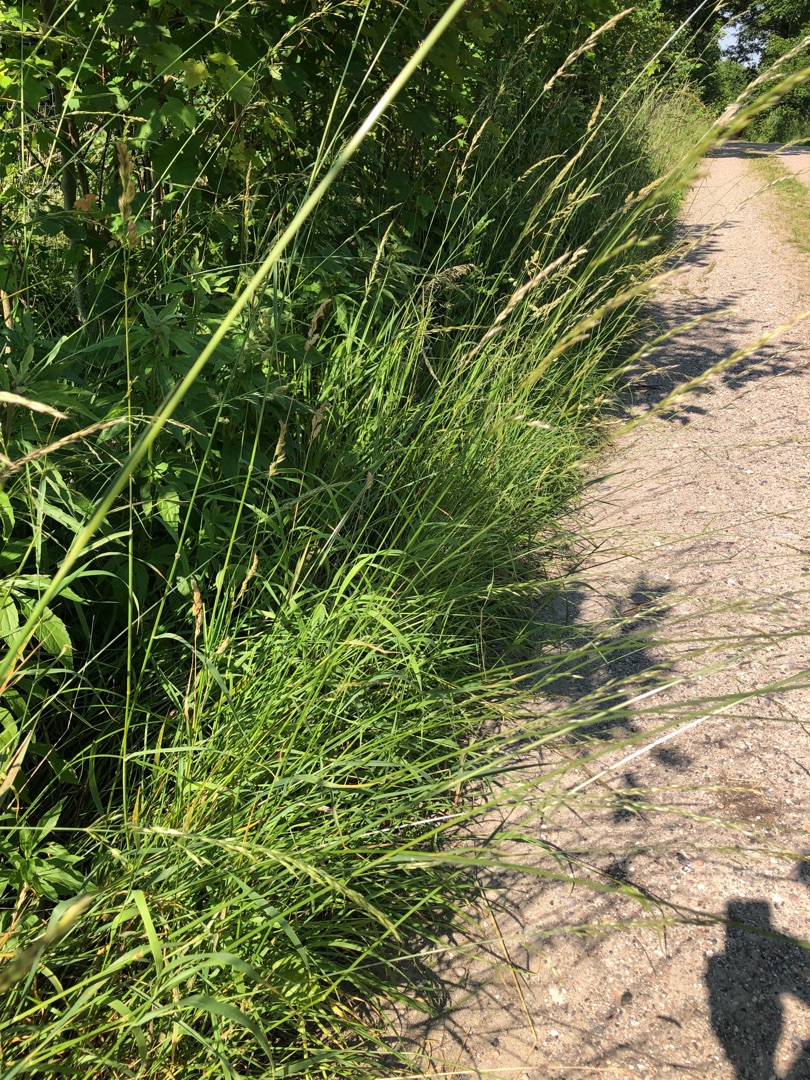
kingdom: Plantae
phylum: Tracheophyta
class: Liliopsida
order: Poales
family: Poaceae
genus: Arrhenatherum
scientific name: Arrhenatherum elatius
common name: Draphavre
